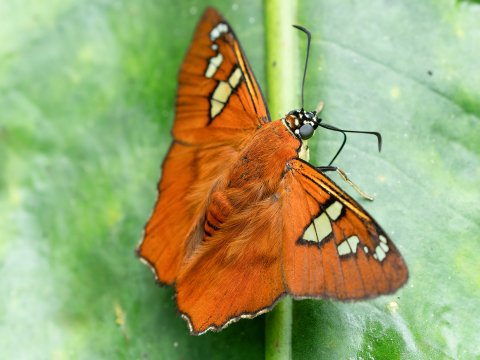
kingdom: Animalia
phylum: Arthropoda
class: Insecta
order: Lepidoptera
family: Hesperiidae
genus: Myscelus
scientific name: Myscelus amystis
